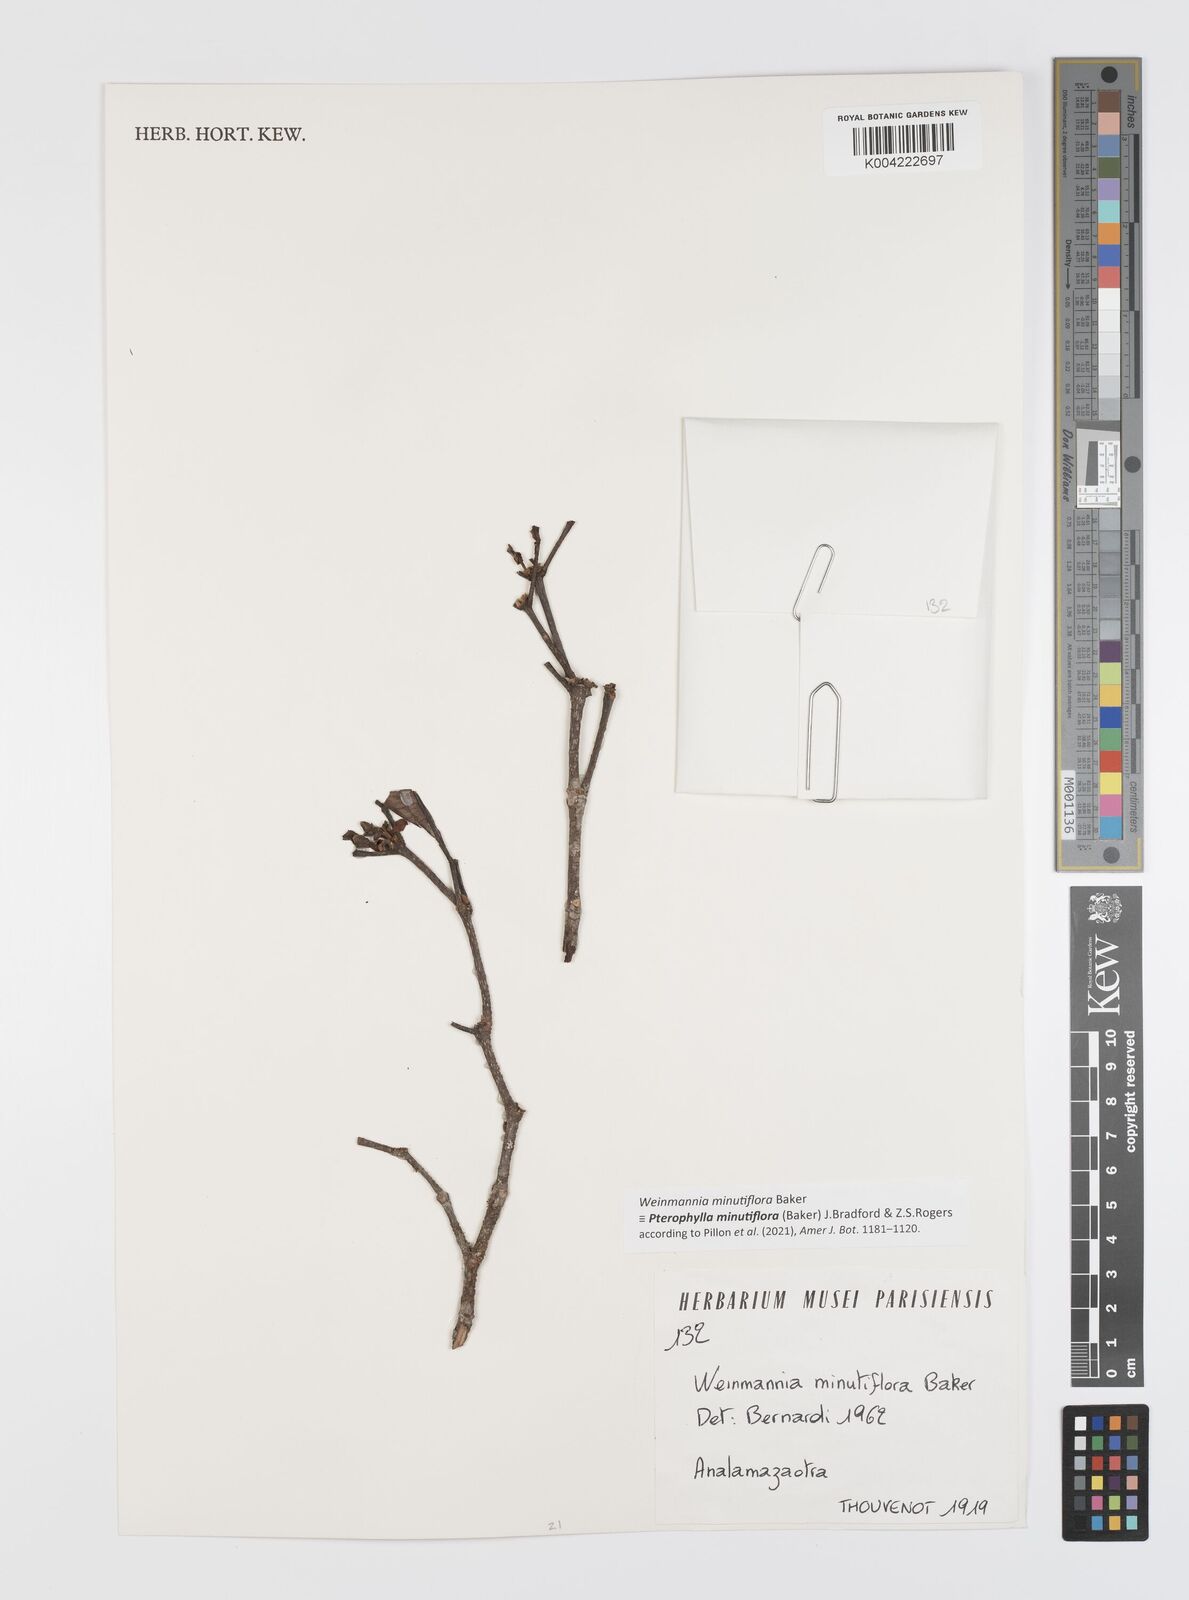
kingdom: Plantae
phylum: Tracheophyta
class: Magnoliopsida
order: Oxalidales
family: Cunoniaceae
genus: Pterophylla
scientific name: Pterophylla
